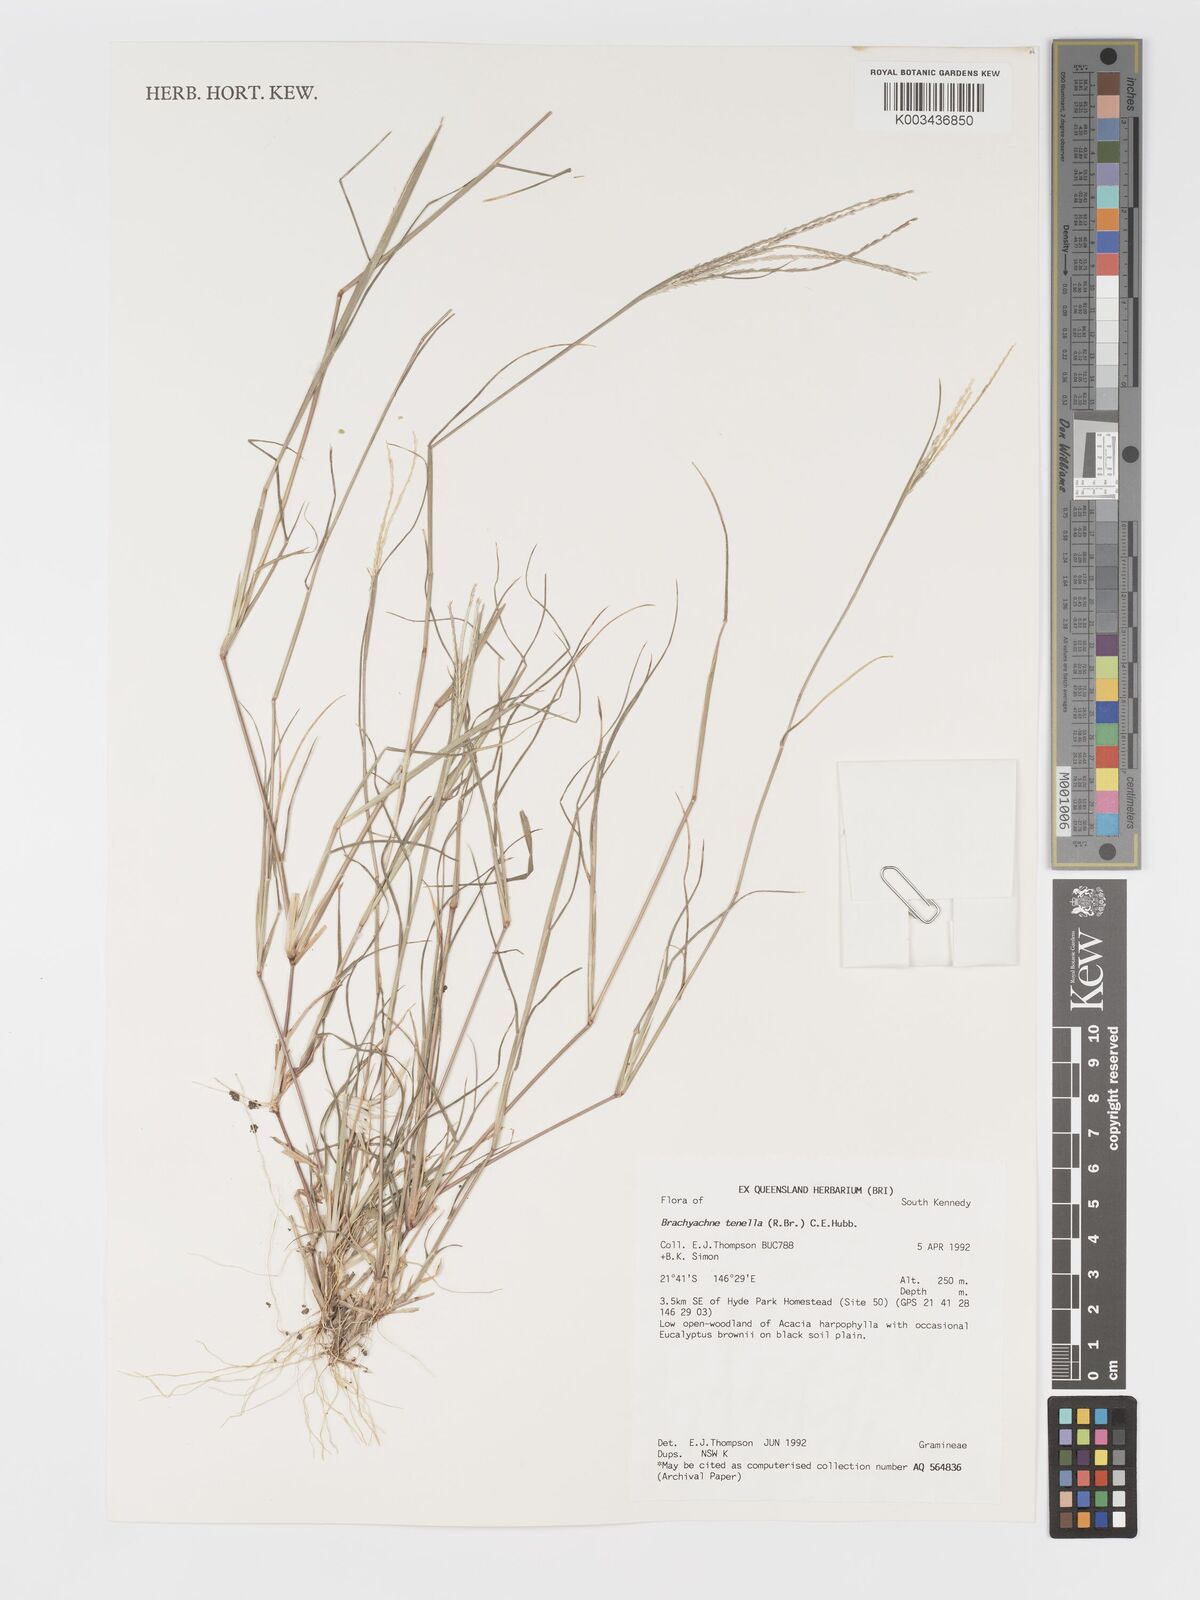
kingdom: Plantae
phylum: Tracheophyta
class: Liliopsida
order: Poales
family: Poaceae
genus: Cynodon
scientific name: Cynodon tenellus
